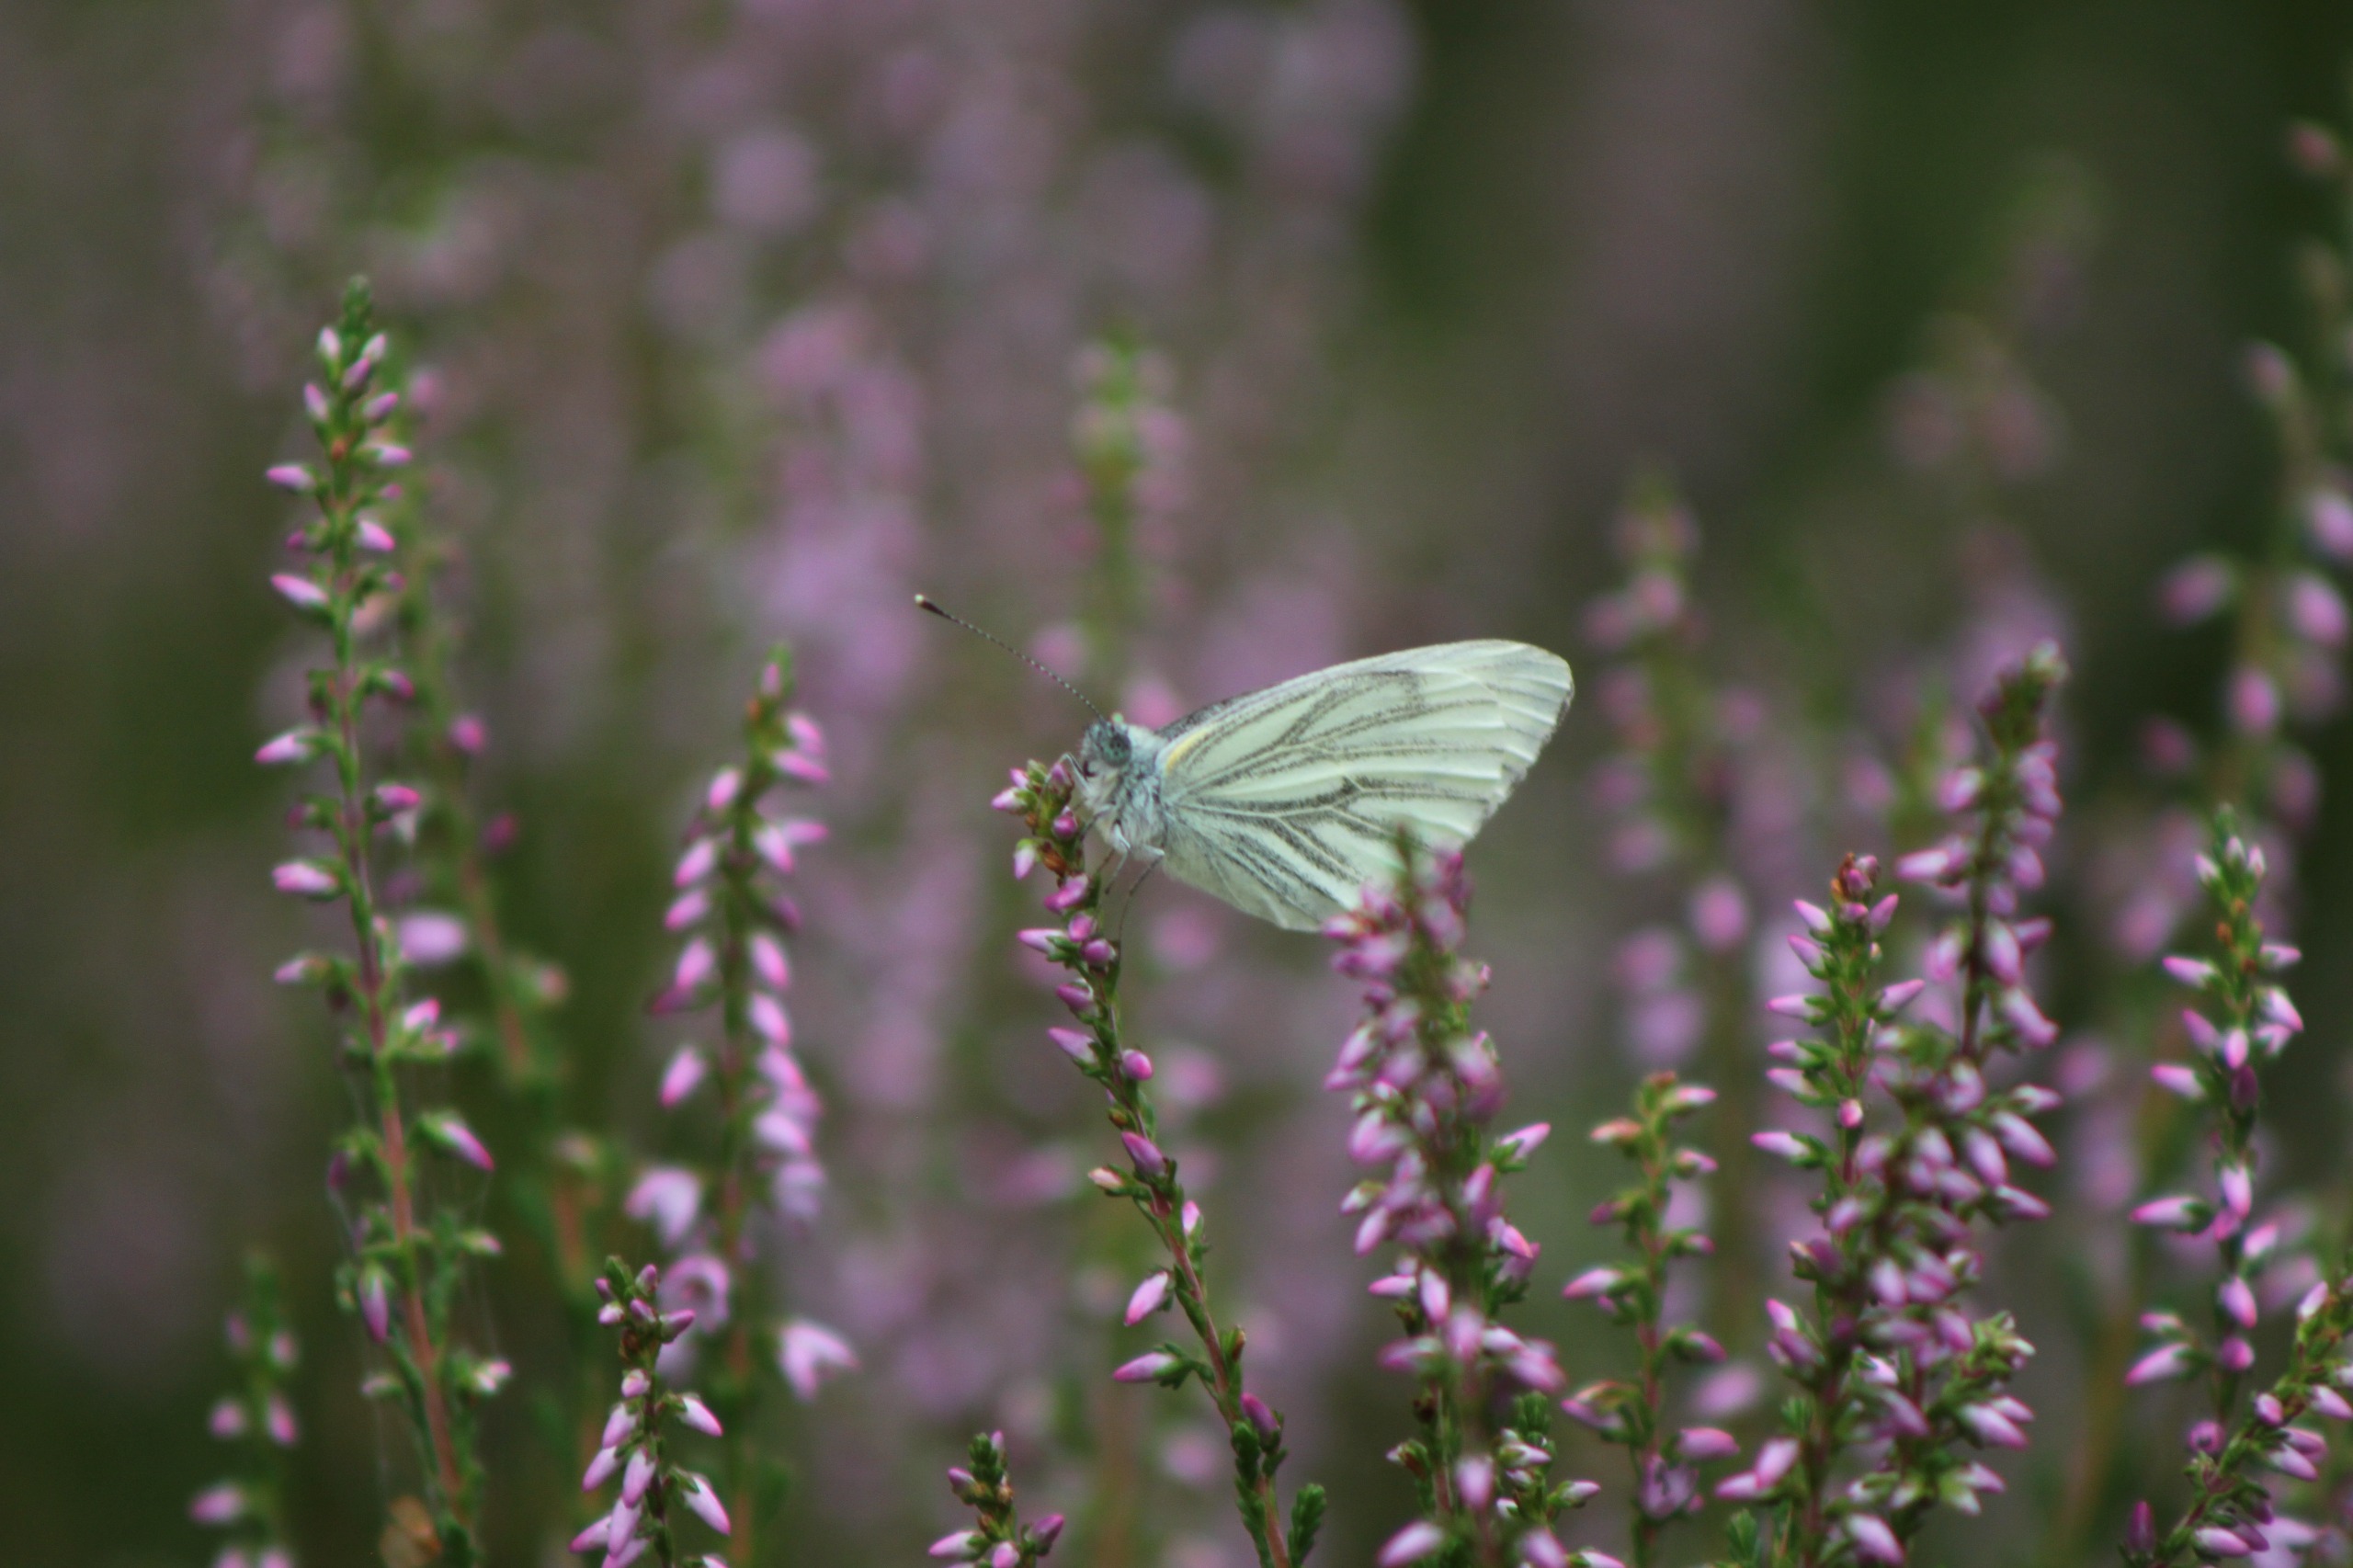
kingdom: Animalia
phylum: Arthropoda
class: Insecta
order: Lepidoptera
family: Pieridae
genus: Pieris
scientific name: Pieris napi
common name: Grønåret kålsommerfugl
